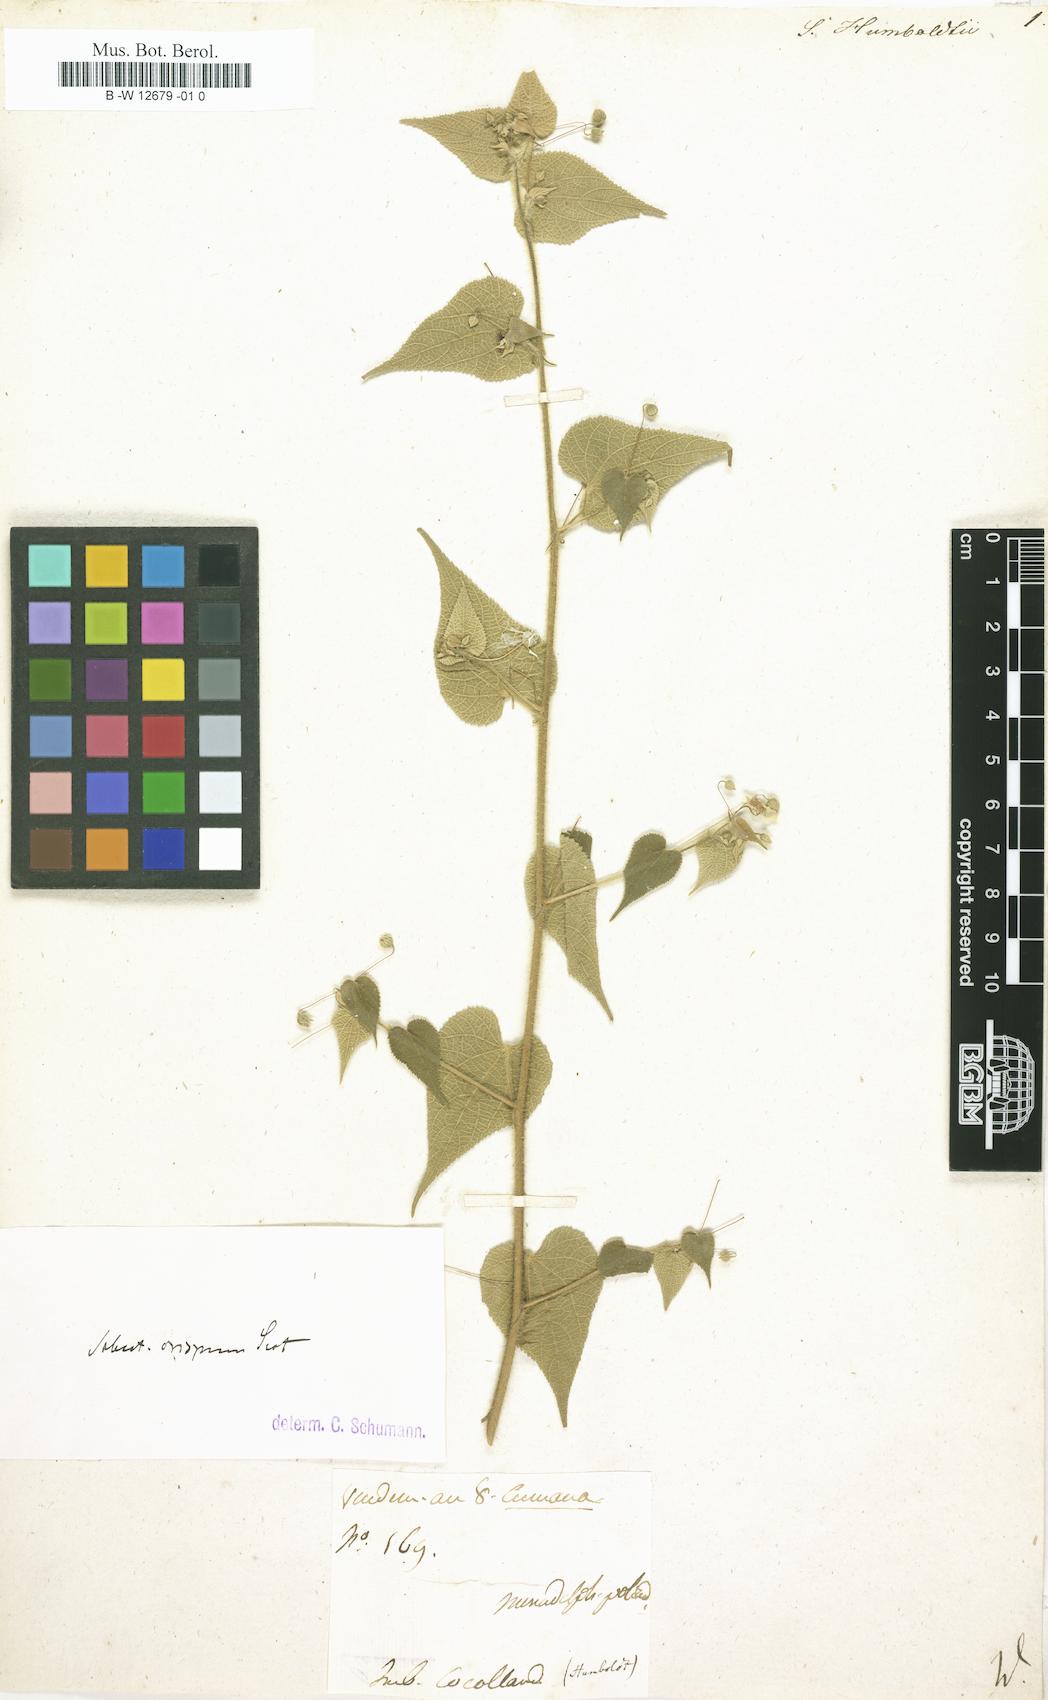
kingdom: Plantae
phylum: Tracheophyta
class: Magnoliopsida
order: Malvales
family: Malvaceae
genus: Sidastrum
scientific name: Sidastrum paniculatum
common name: Panicled sandmallow
